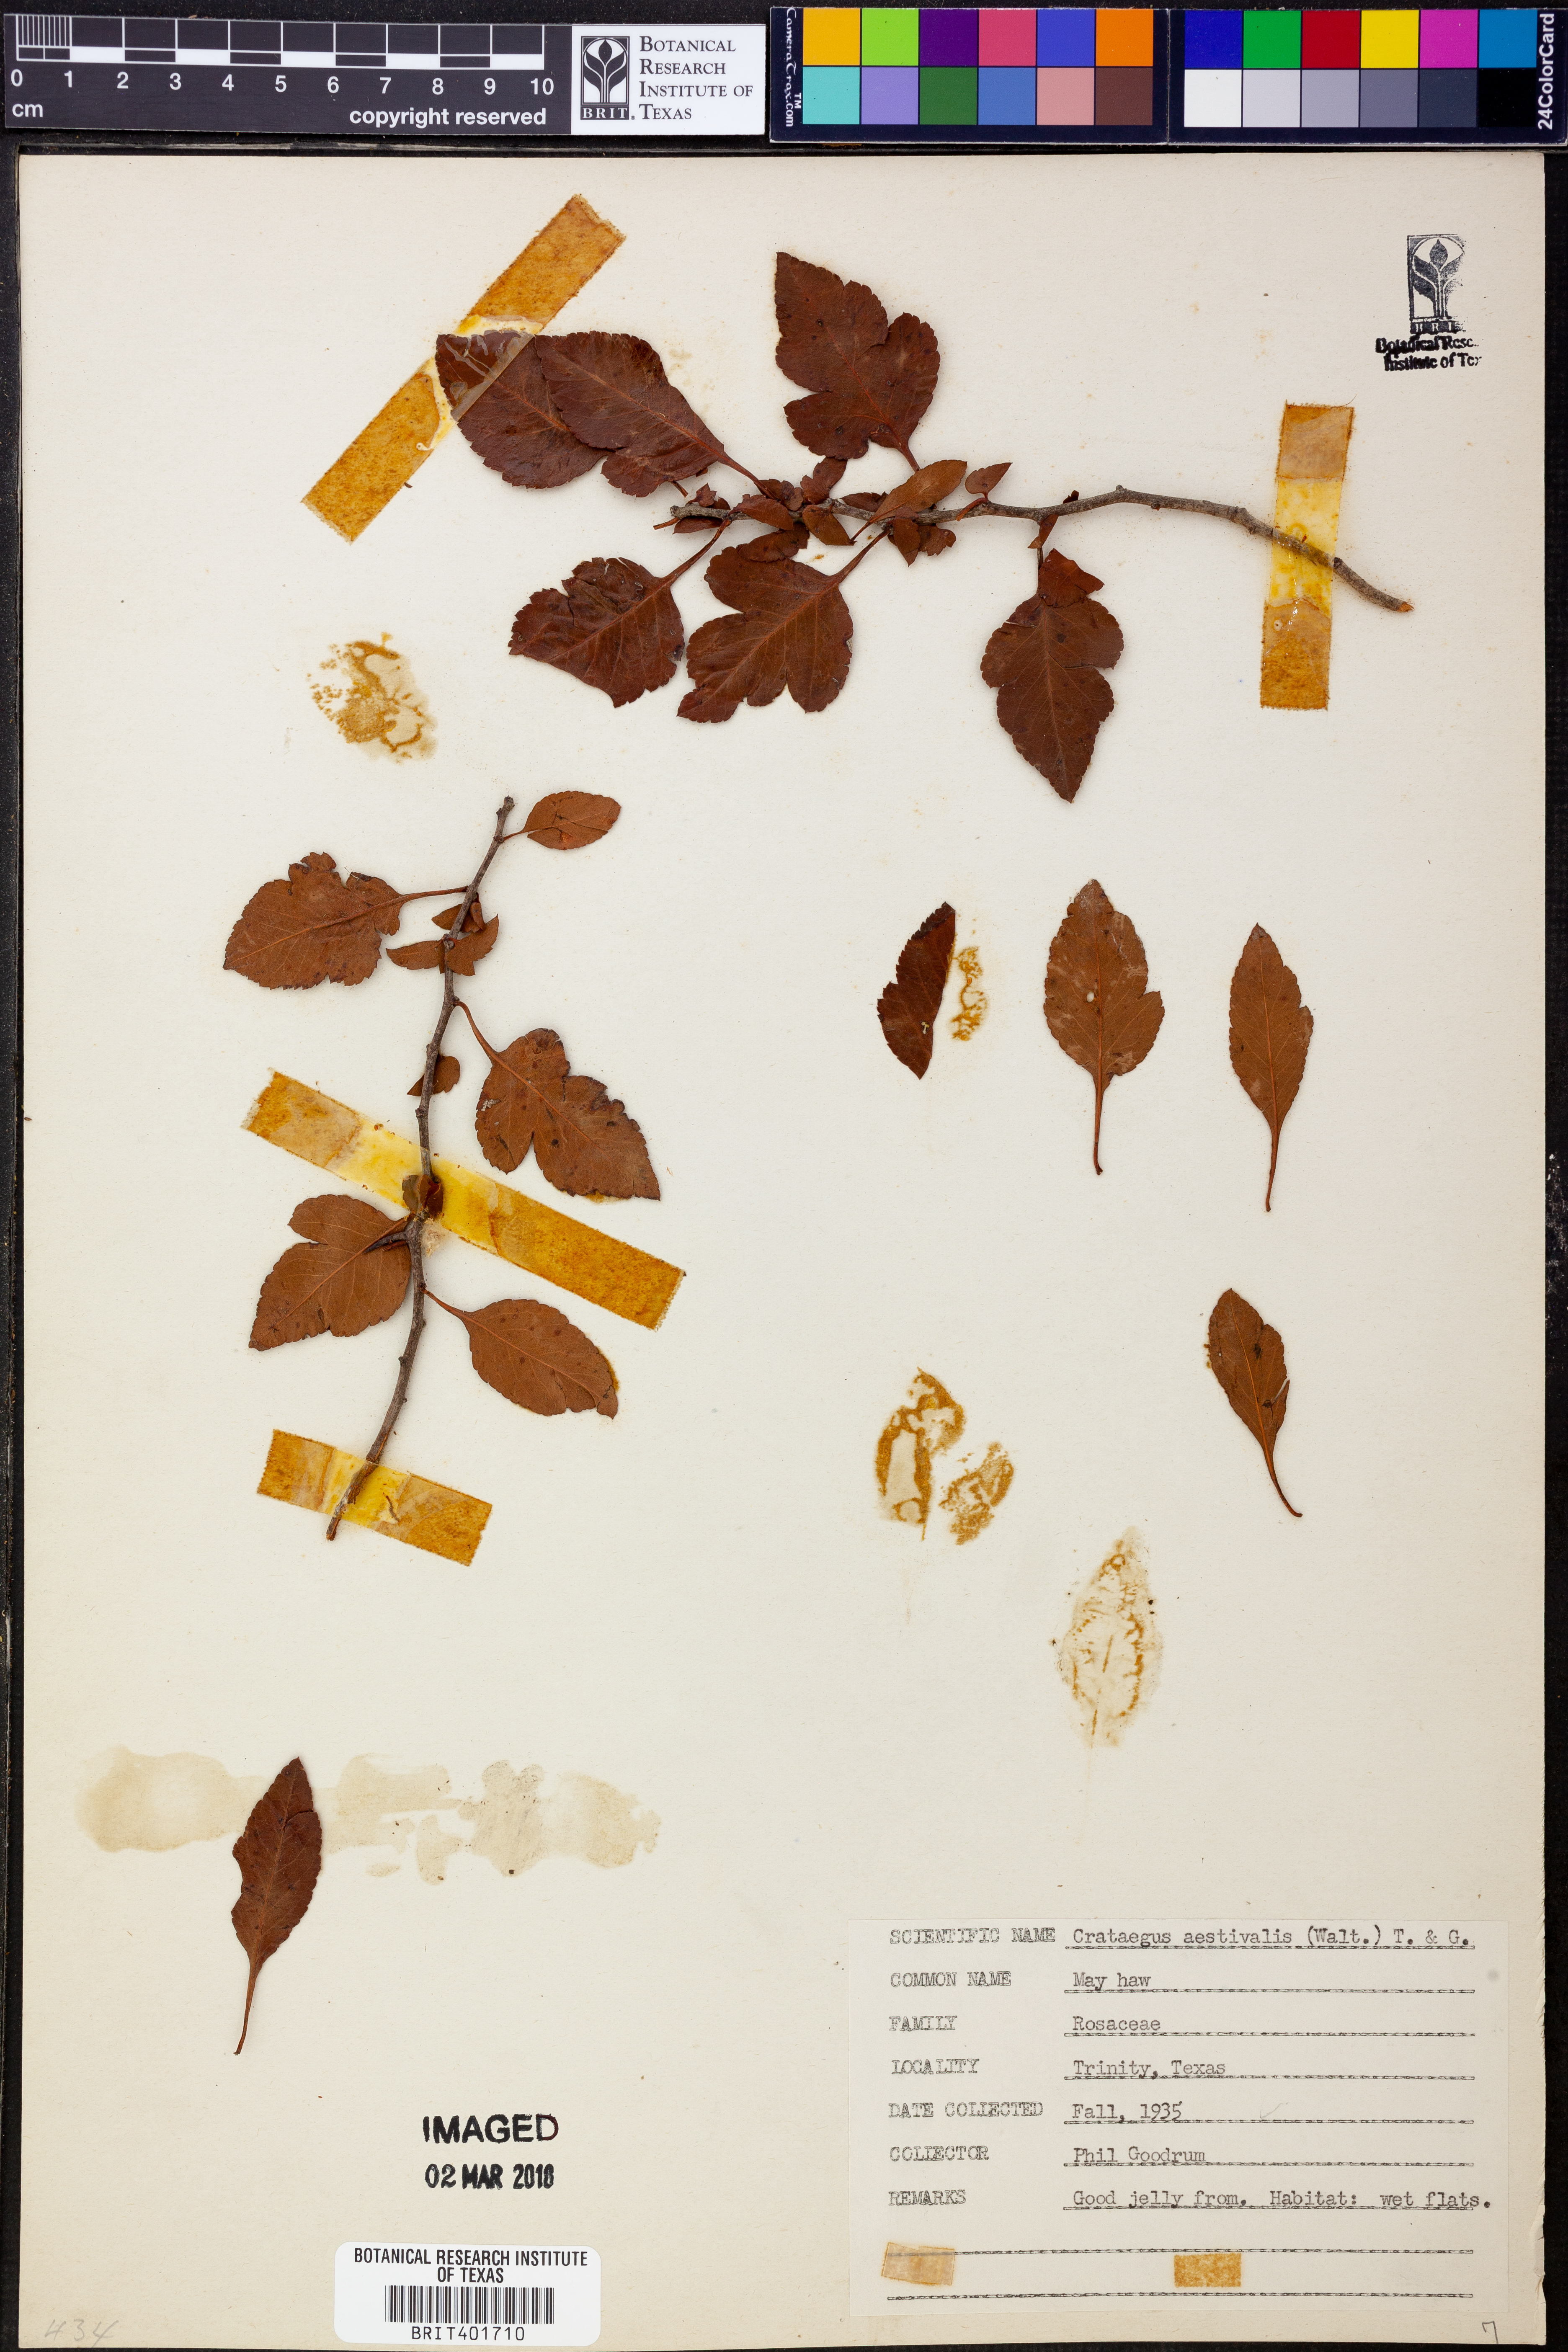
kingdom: Plantae
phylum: Tracheophyta
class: Magnoliopsida
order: Rosales
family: Rosaceae
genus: Crataegus
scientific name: Crataegus aestivalis
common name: Mayhaw
